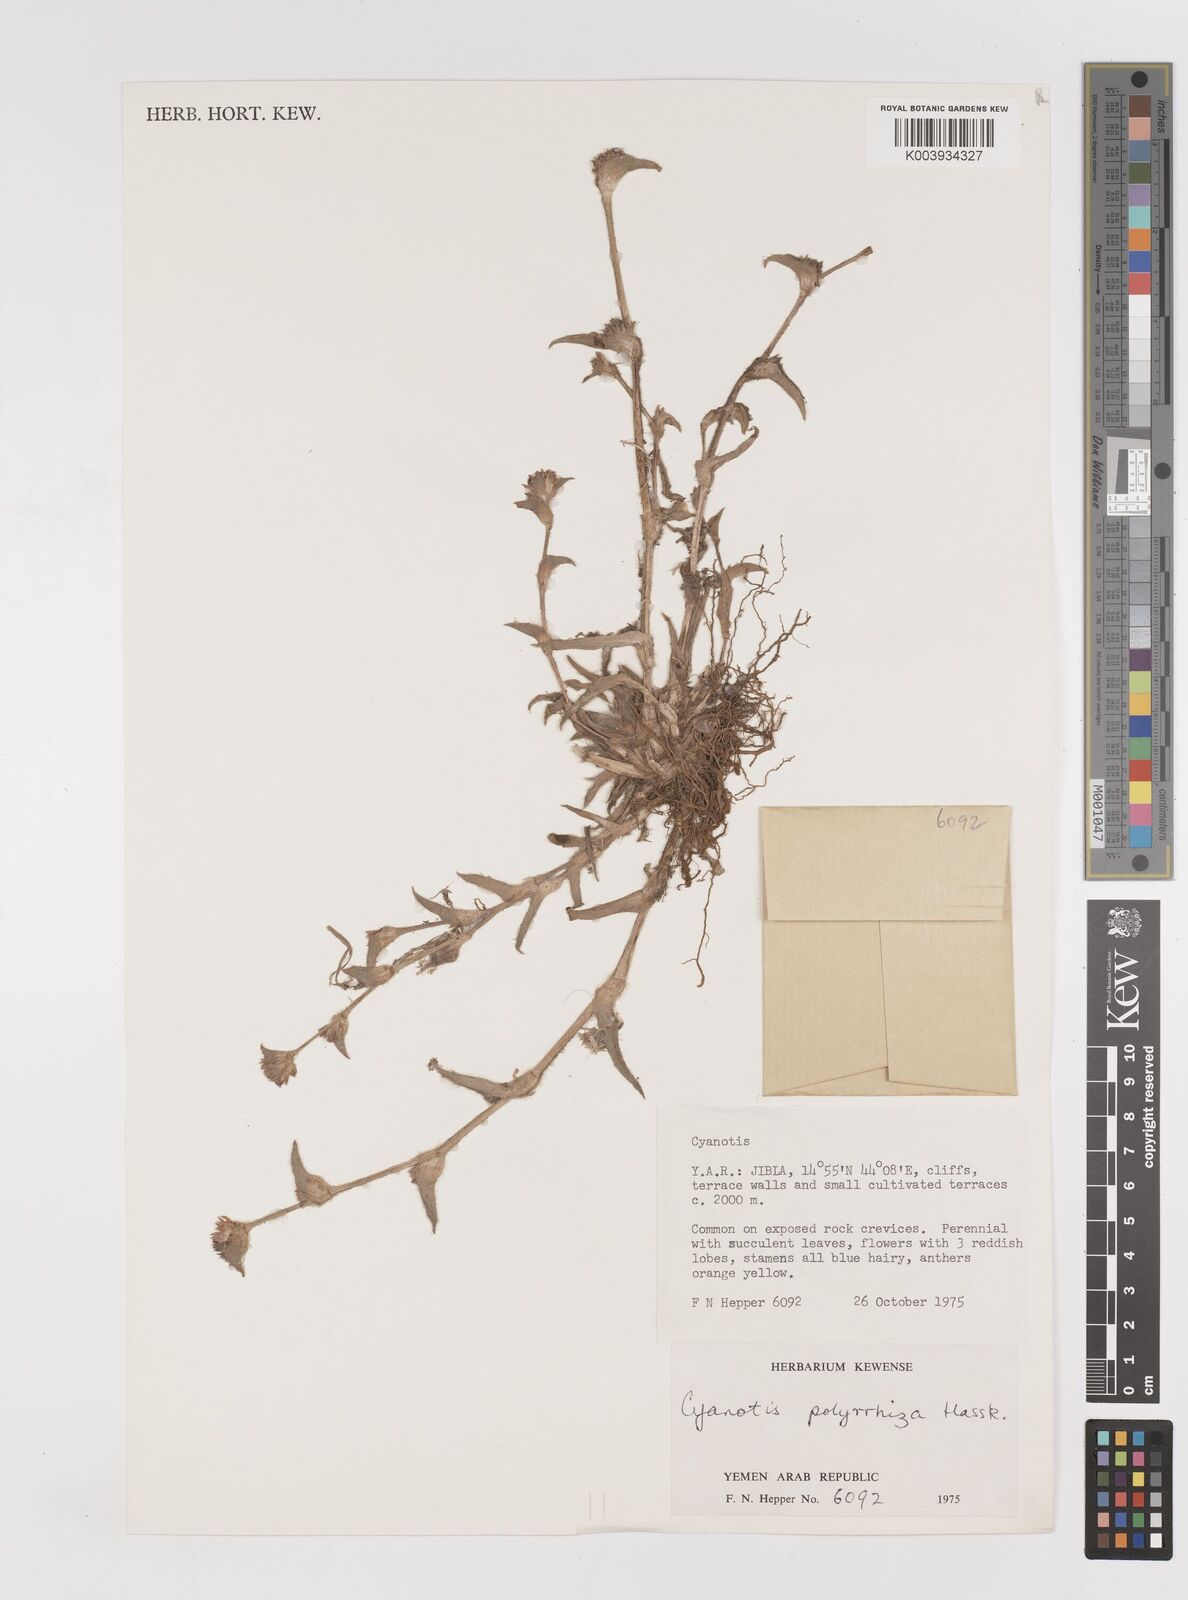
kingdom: Plantae
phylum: Tracheophyta
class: Liliopsida
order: Commelinales
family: Commelinaceae
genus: Cyanotis
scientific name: Cyanotis nyctitropa
